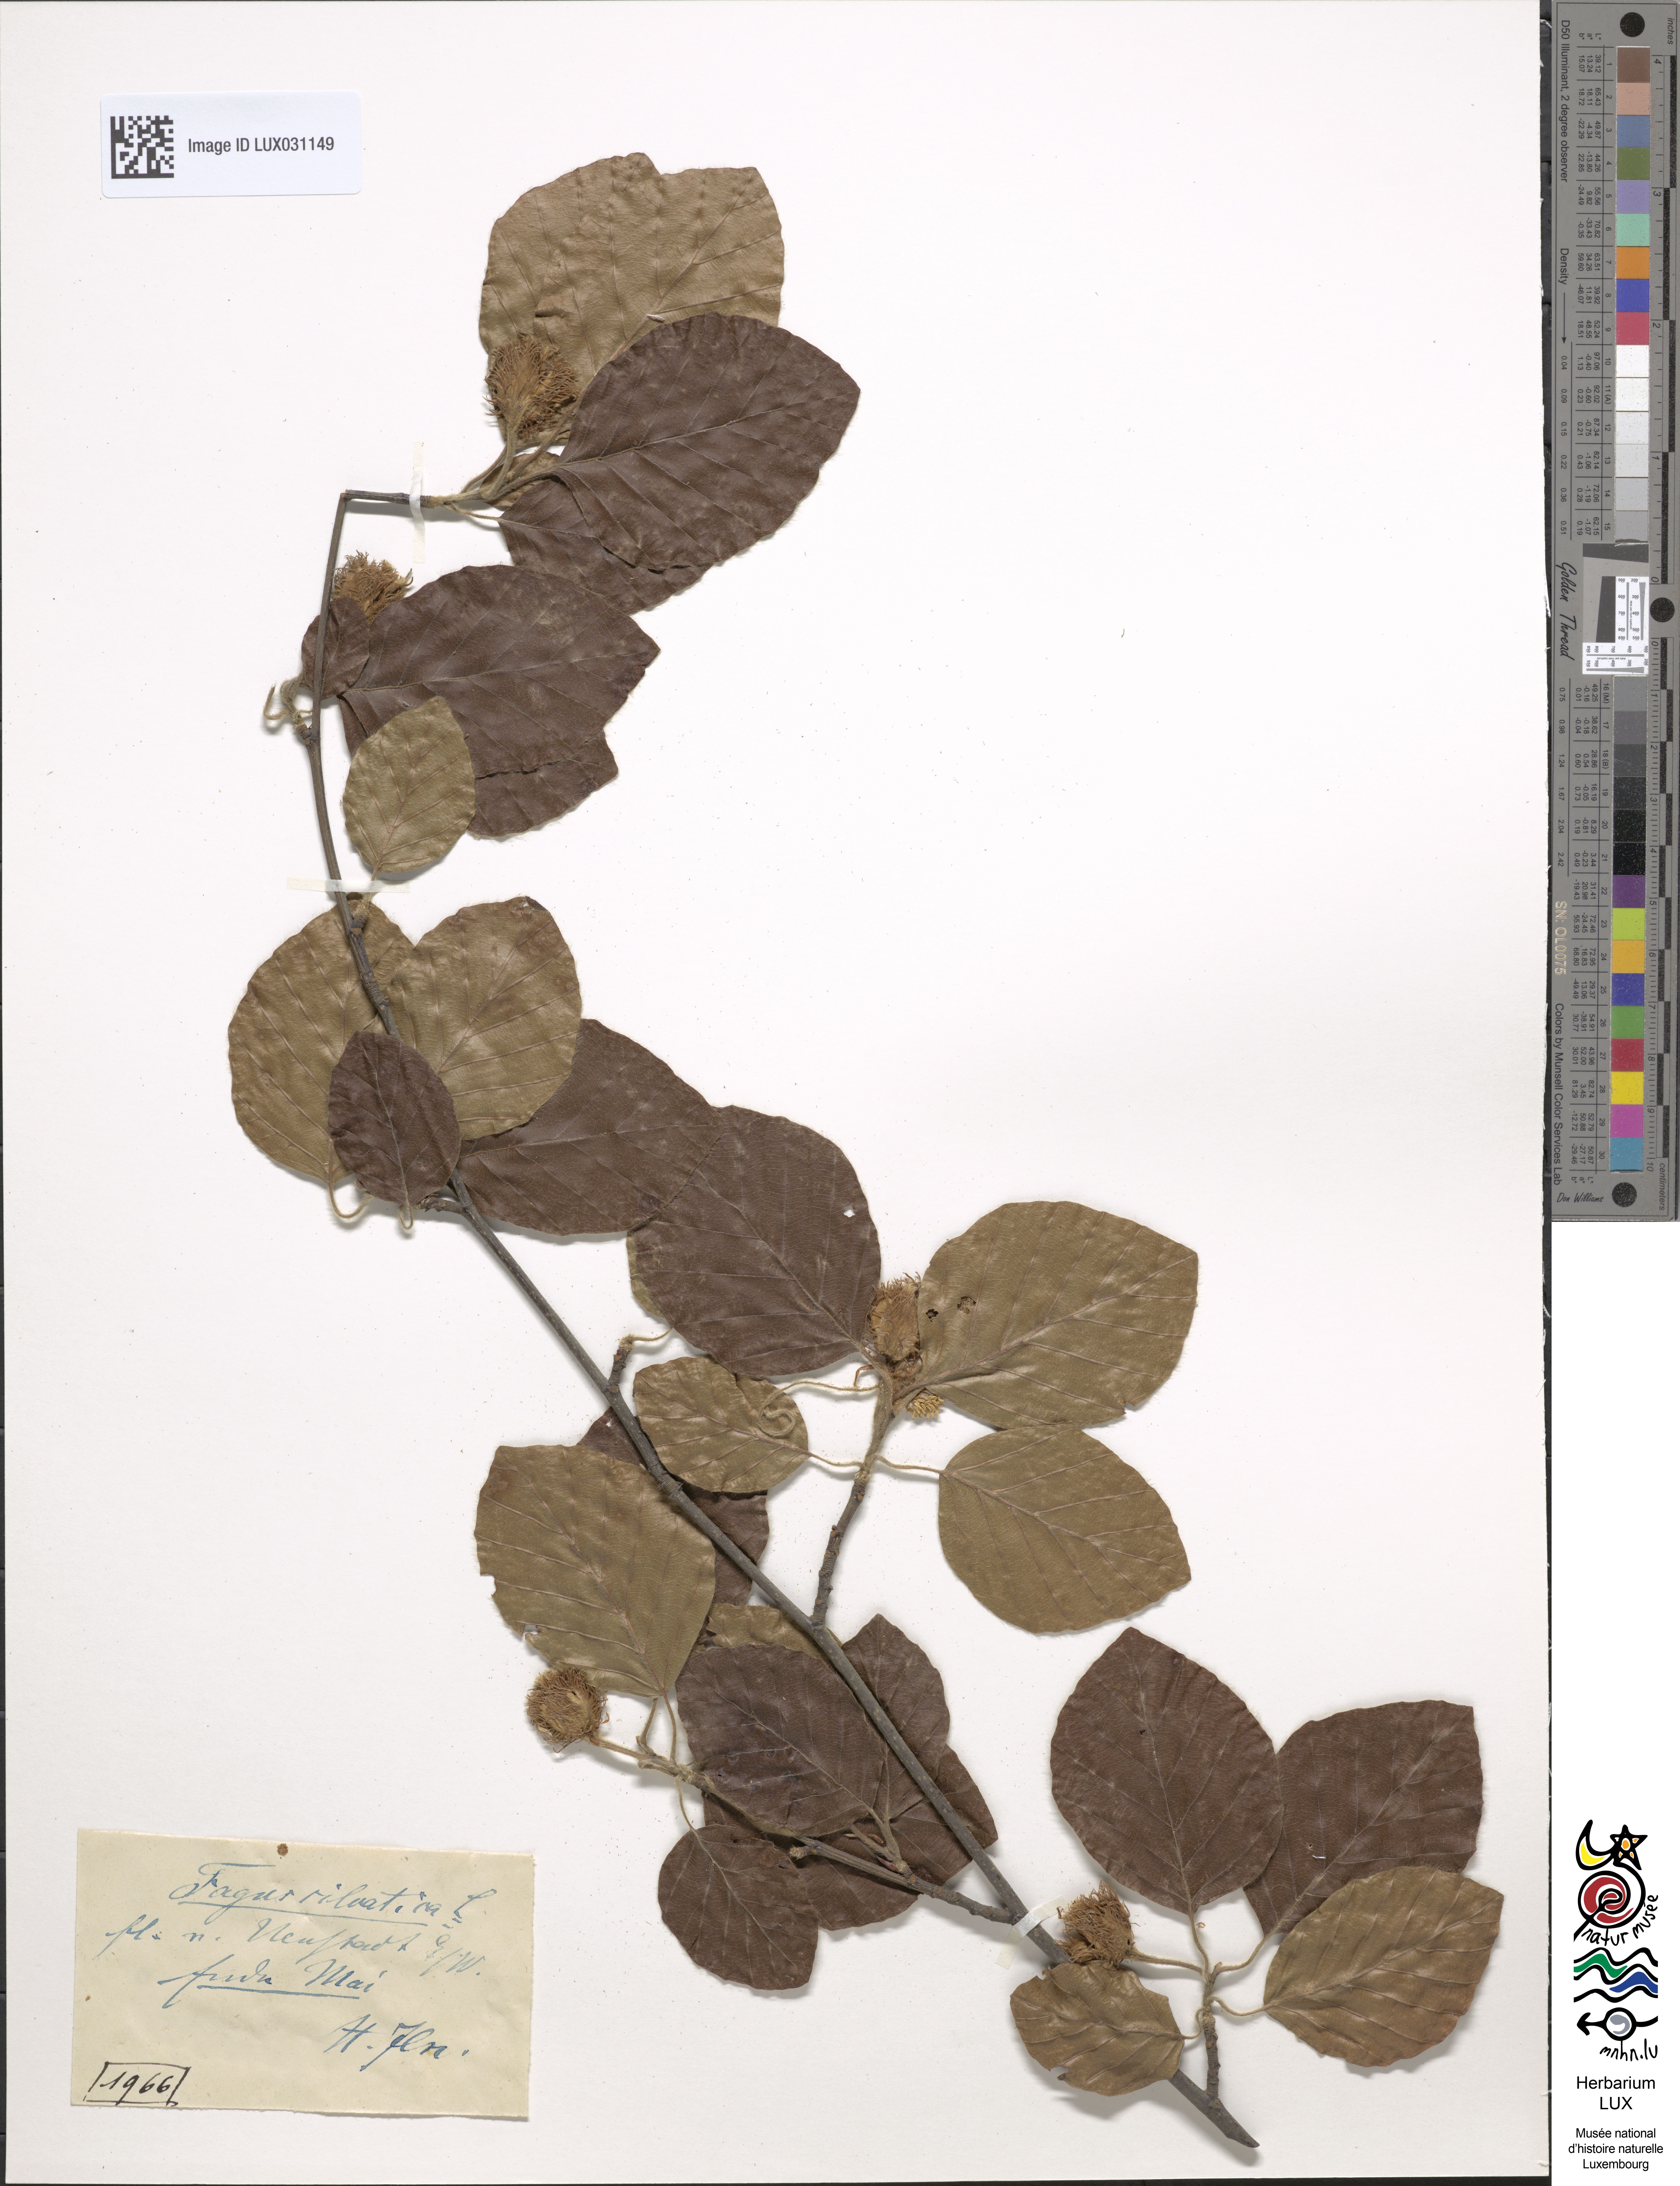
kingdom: Plantae
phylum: Tracheophyta
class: Magnoliopsida
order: Fagales
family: Fagaceae
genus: Fagus
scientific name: Fagus sylvatica
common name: Beech
